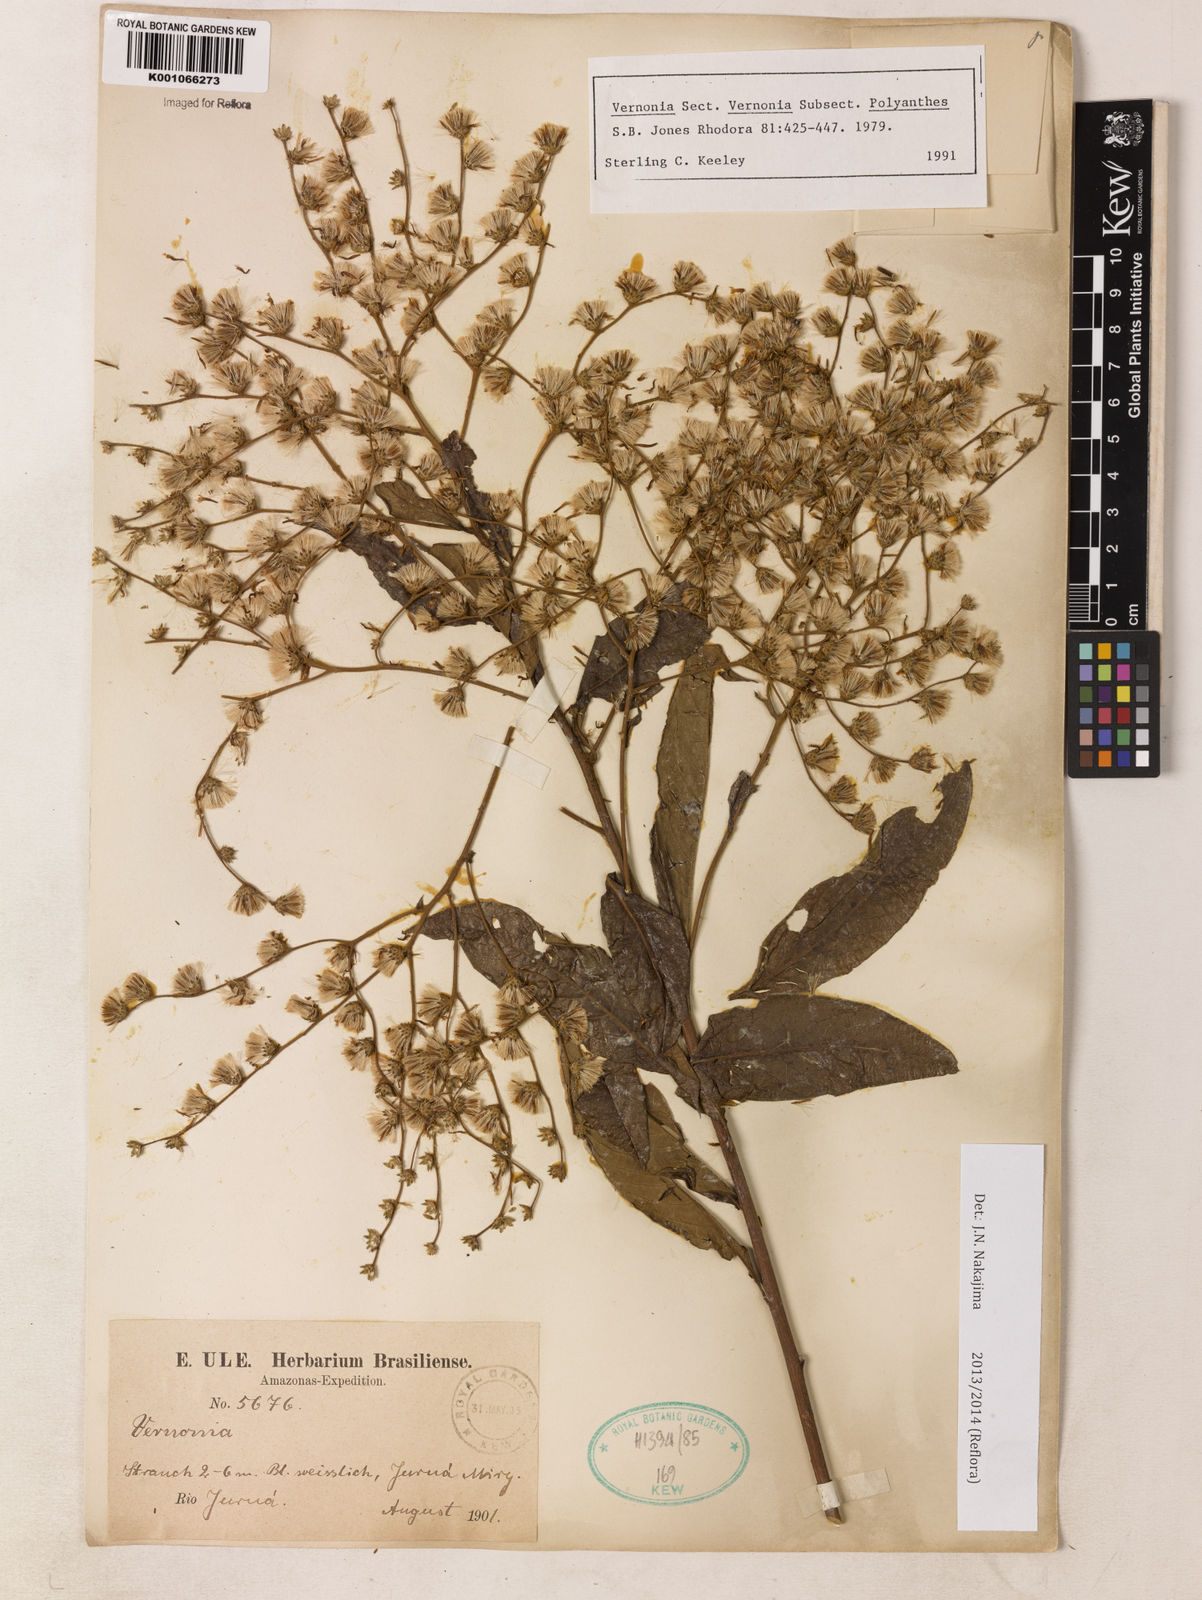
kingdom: Plantae
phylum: Tracheophyta
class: Magnoliopsida
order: Asterales
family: Asteraceae
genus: Vernonia
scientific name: Vernonia
